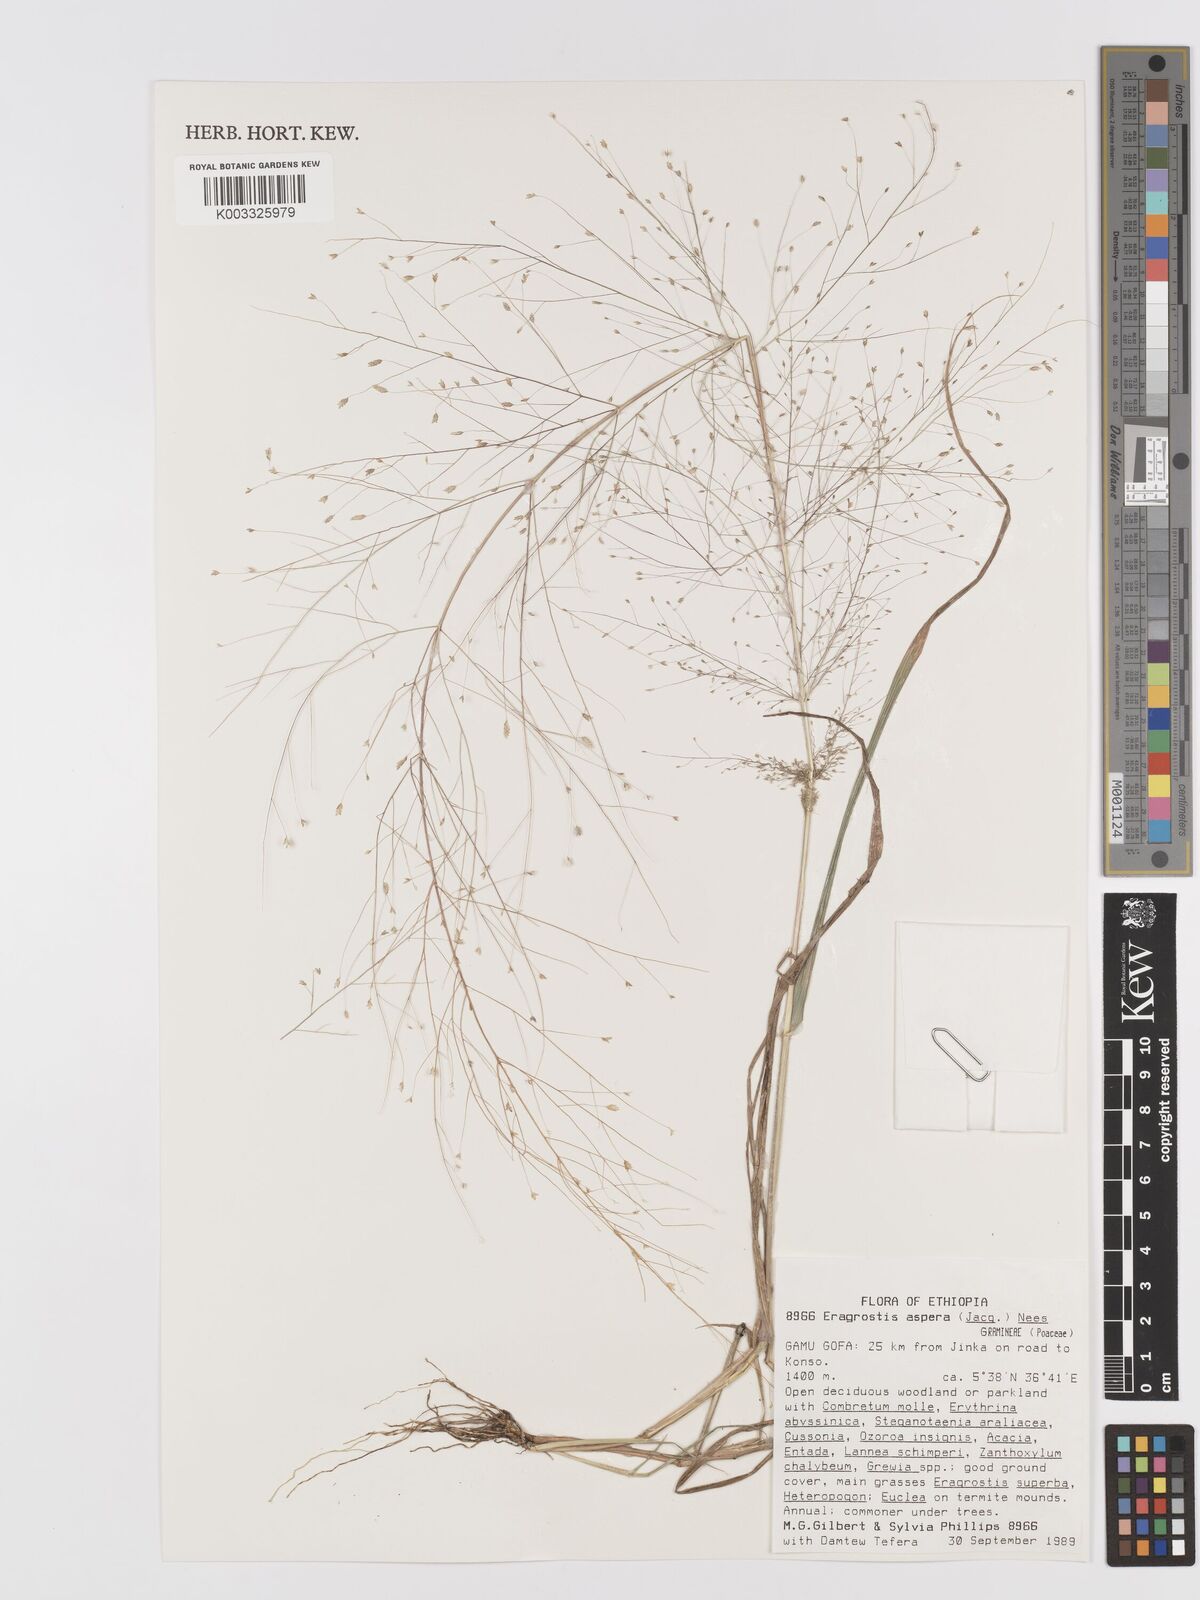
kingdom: Plantae
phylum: Tracheophyta
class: Liliopsida
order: Poales
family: Poaceae
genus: Eragrostis
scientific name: Eragrostis aspera
